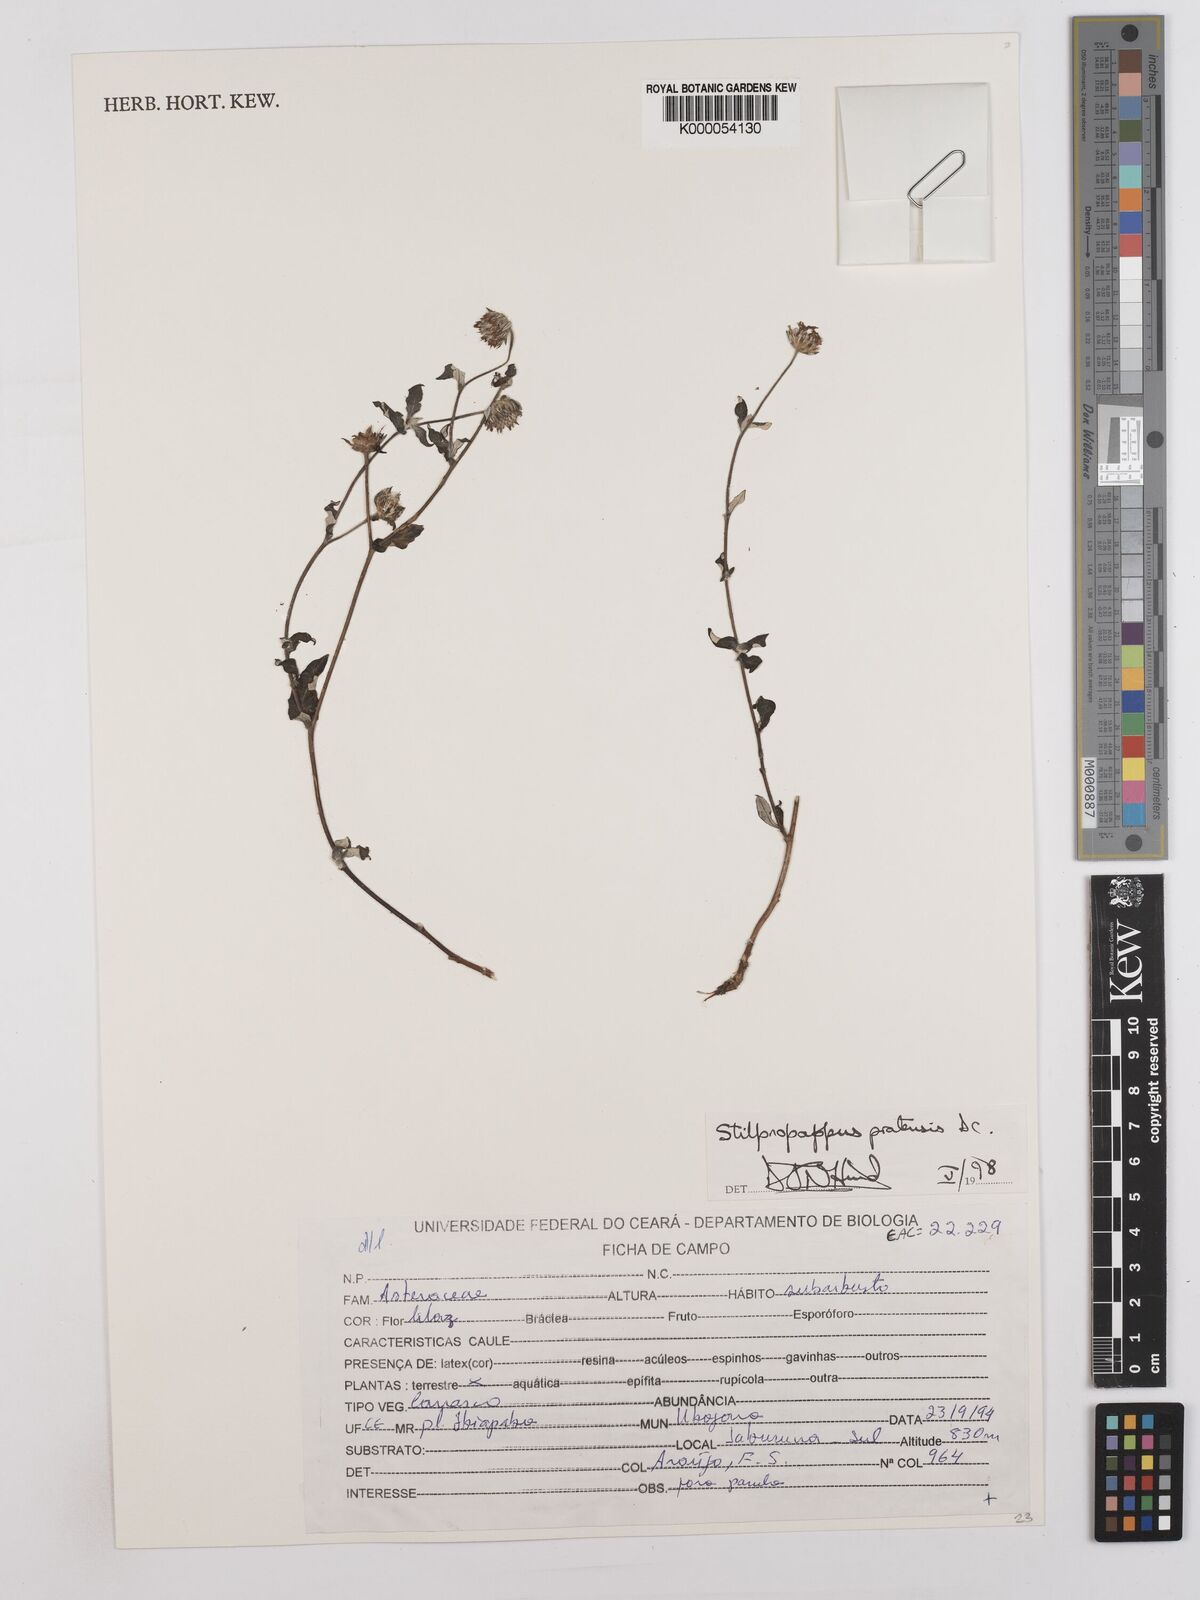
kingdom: Plantae
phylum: Tracheophyta
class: Magnoliopsida
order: Asterales
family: Asteraceae
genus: Stilpnopappus
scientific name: Stilpnopappus pratensis
